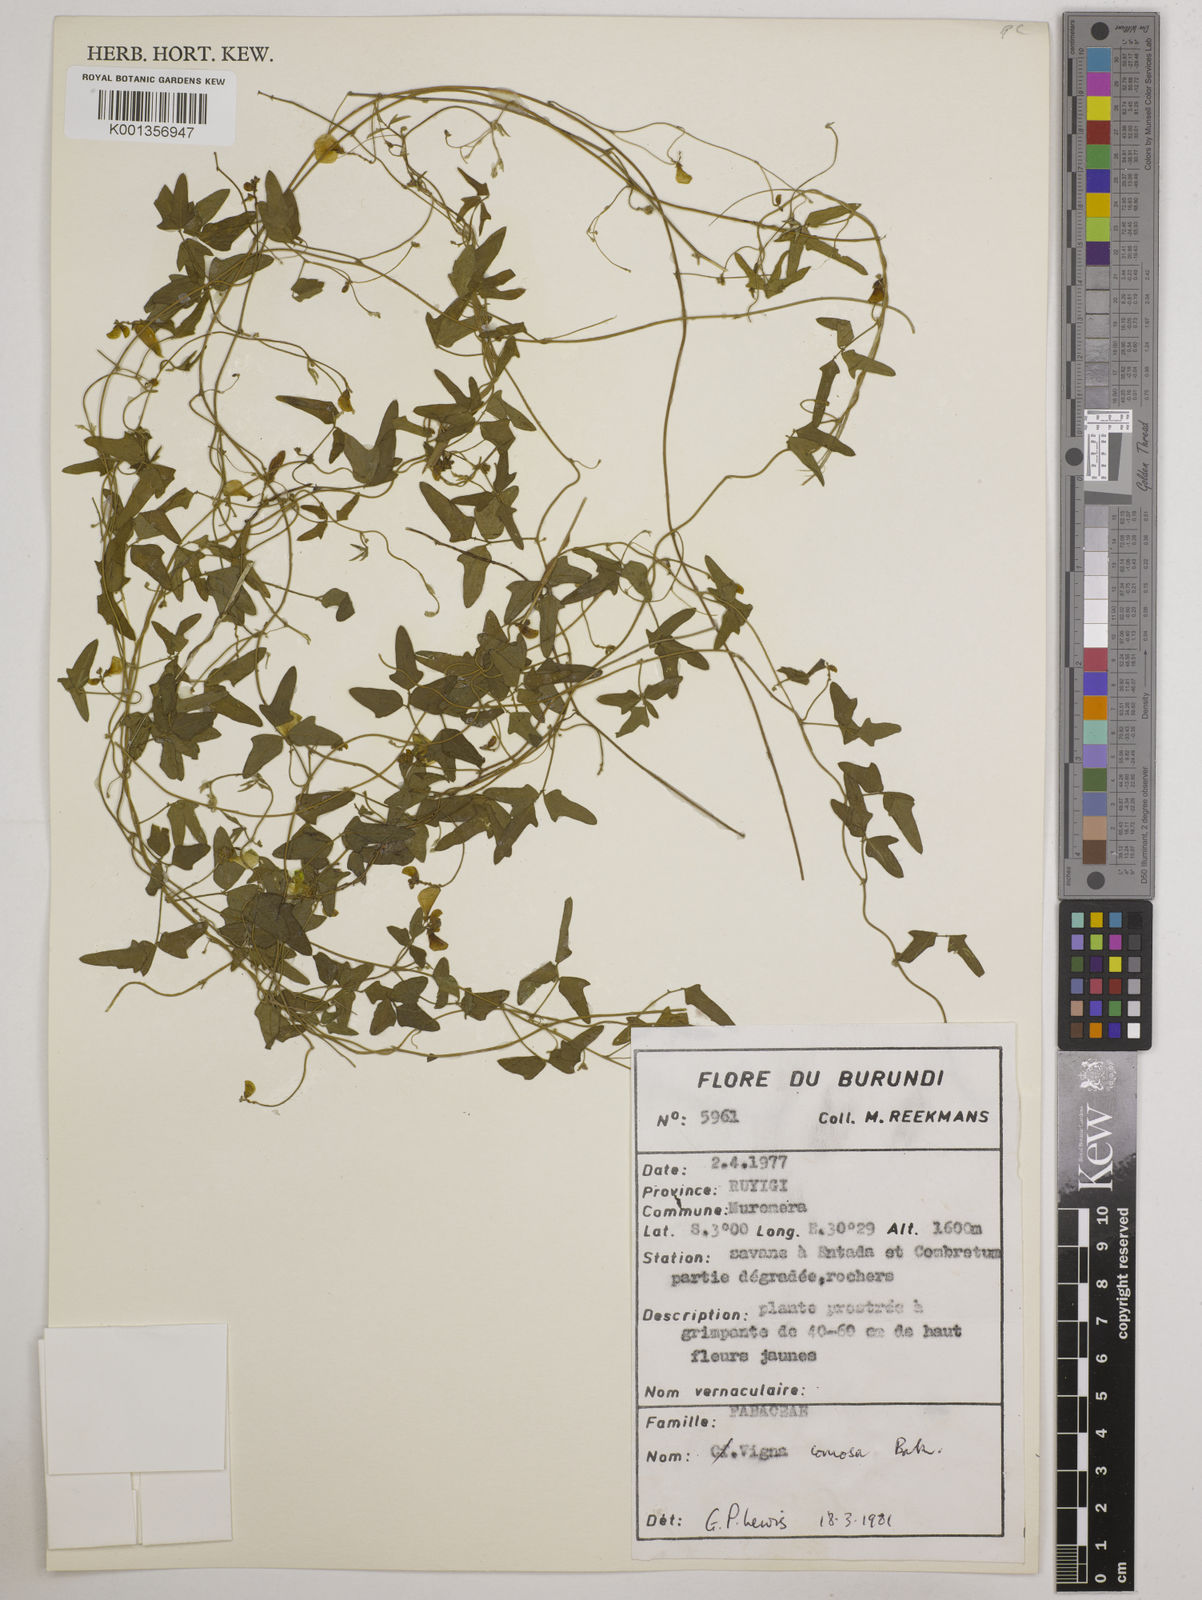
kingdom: Plantae
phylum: Tracheophyta
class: Magnoliopsida
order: Fabales
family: Fabaceae
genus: Vigna
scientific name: Vigna comosa
